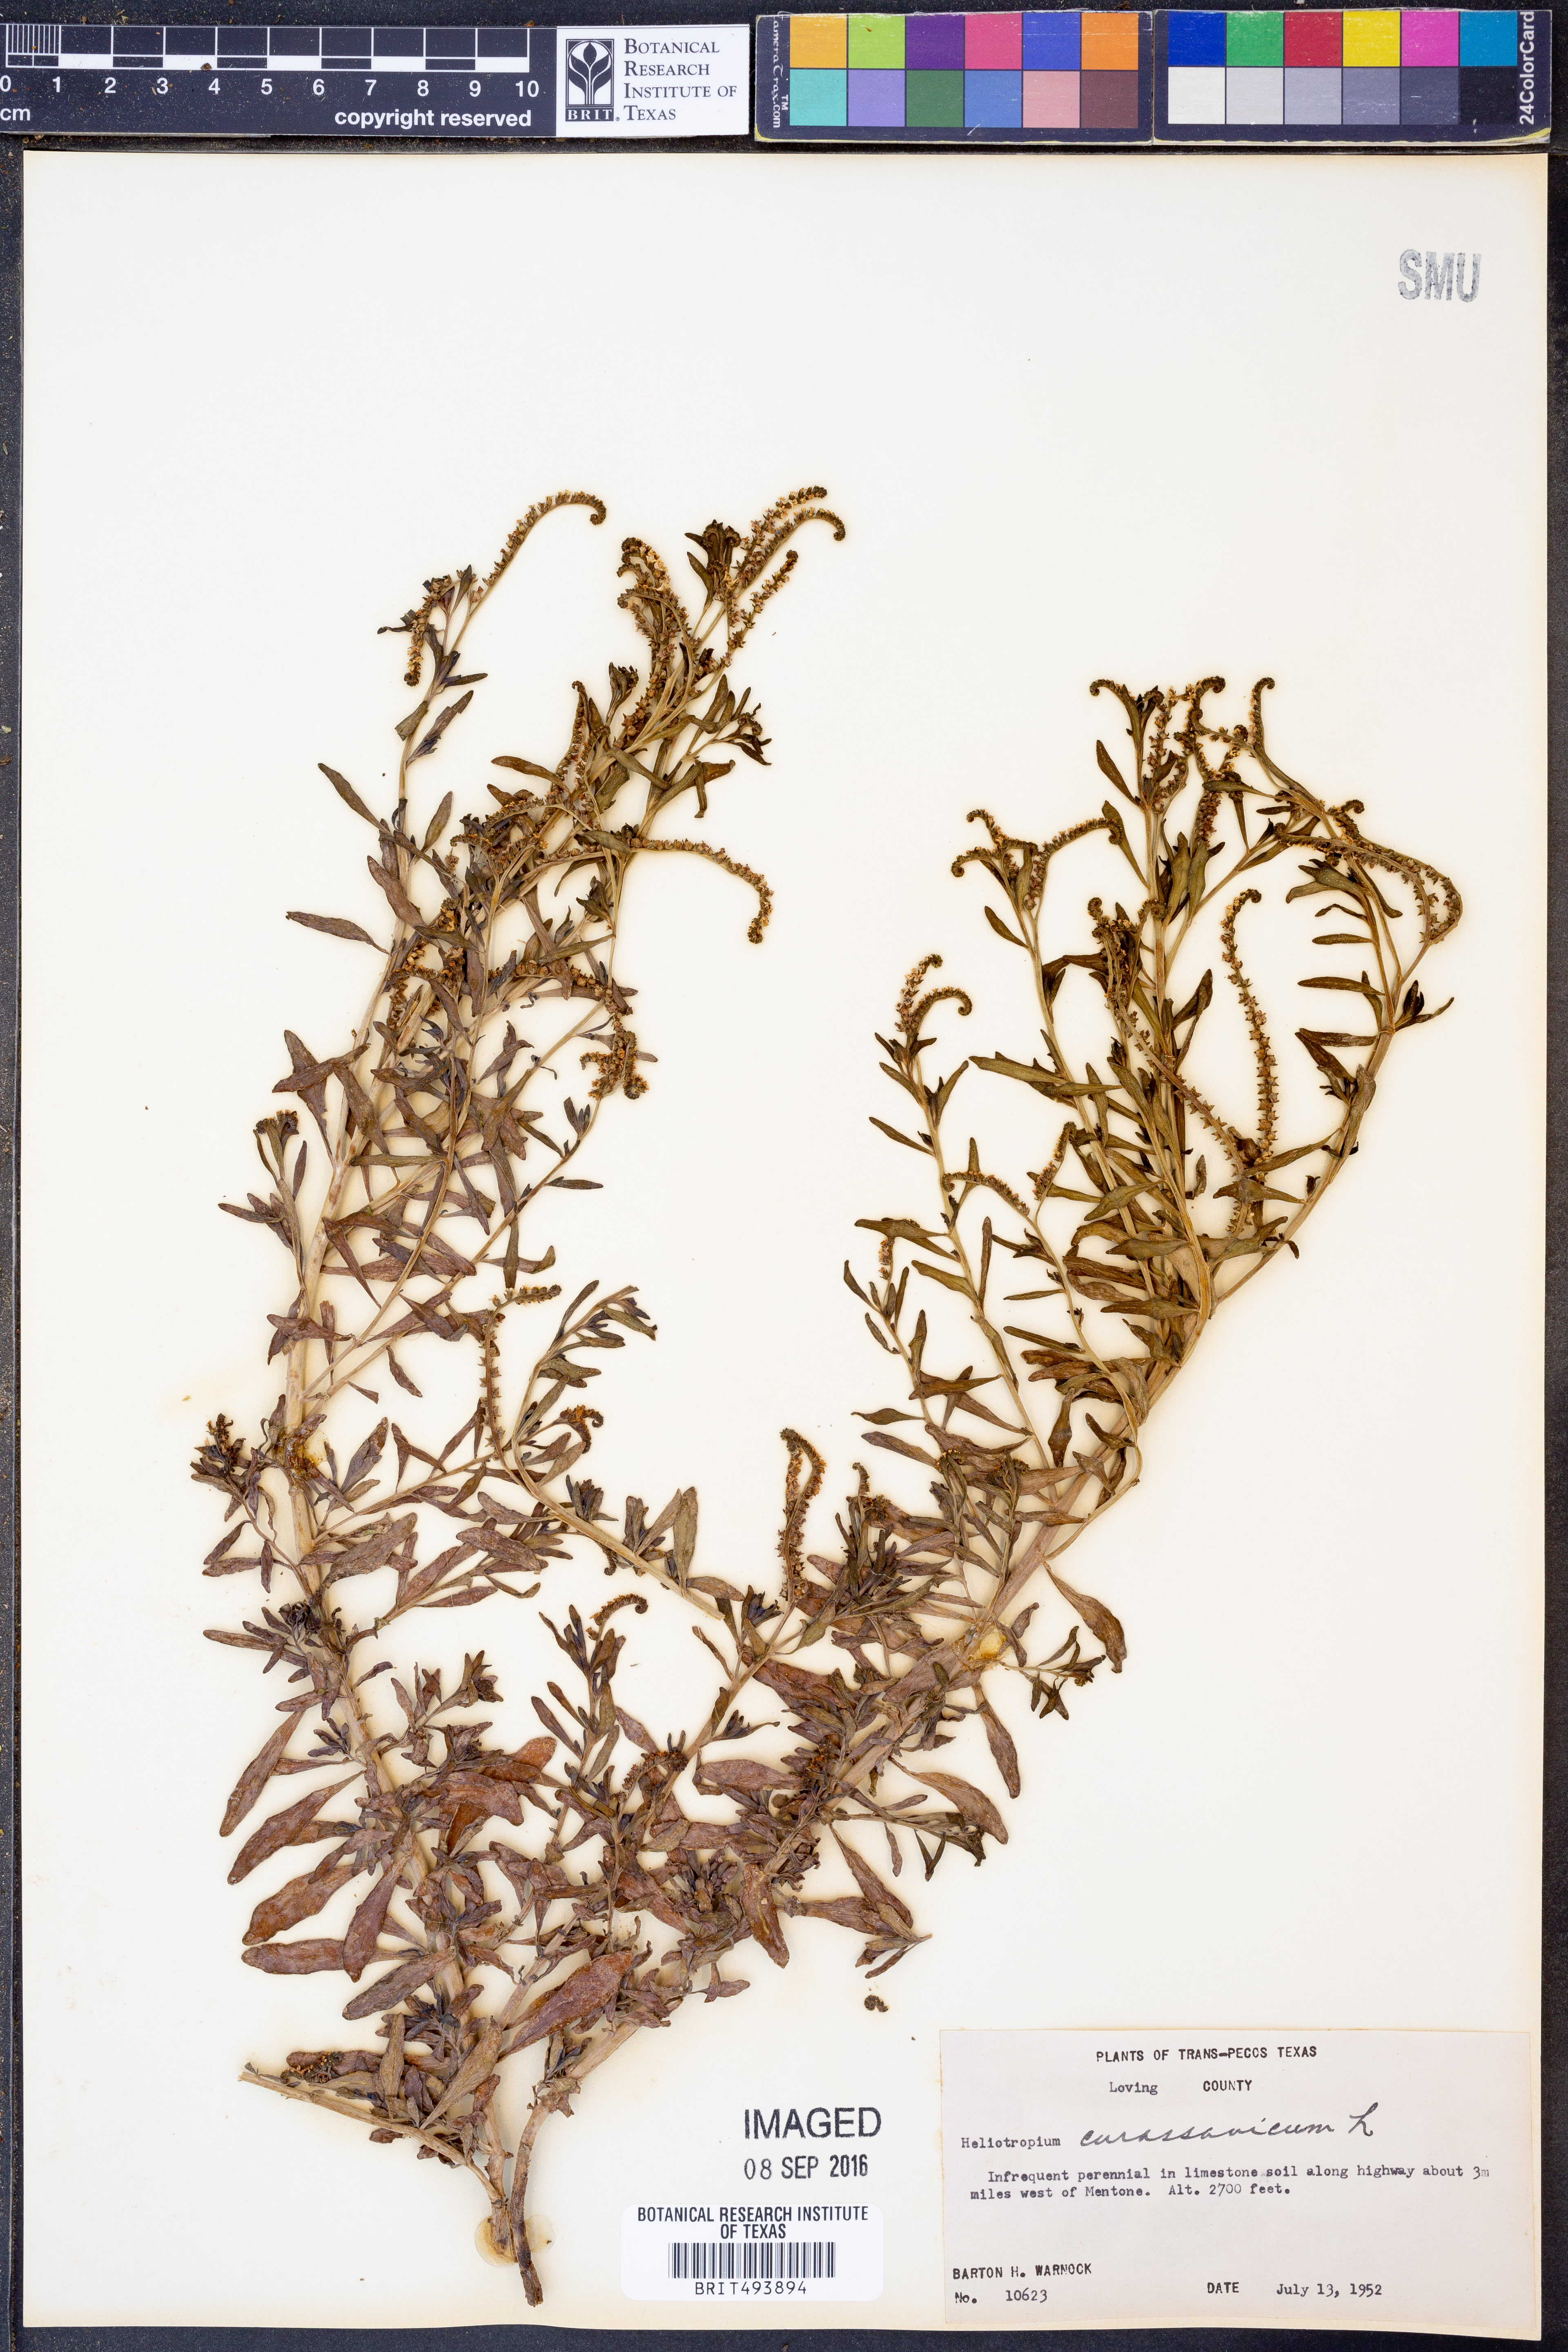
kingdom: Plantae
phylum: Tracheophyta
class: Magnoliopsida
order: Boraginales
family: Heliotropiaceae
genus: Heliotropium
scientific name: Heliotropium curassavicum
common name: Seaside heliotrope
